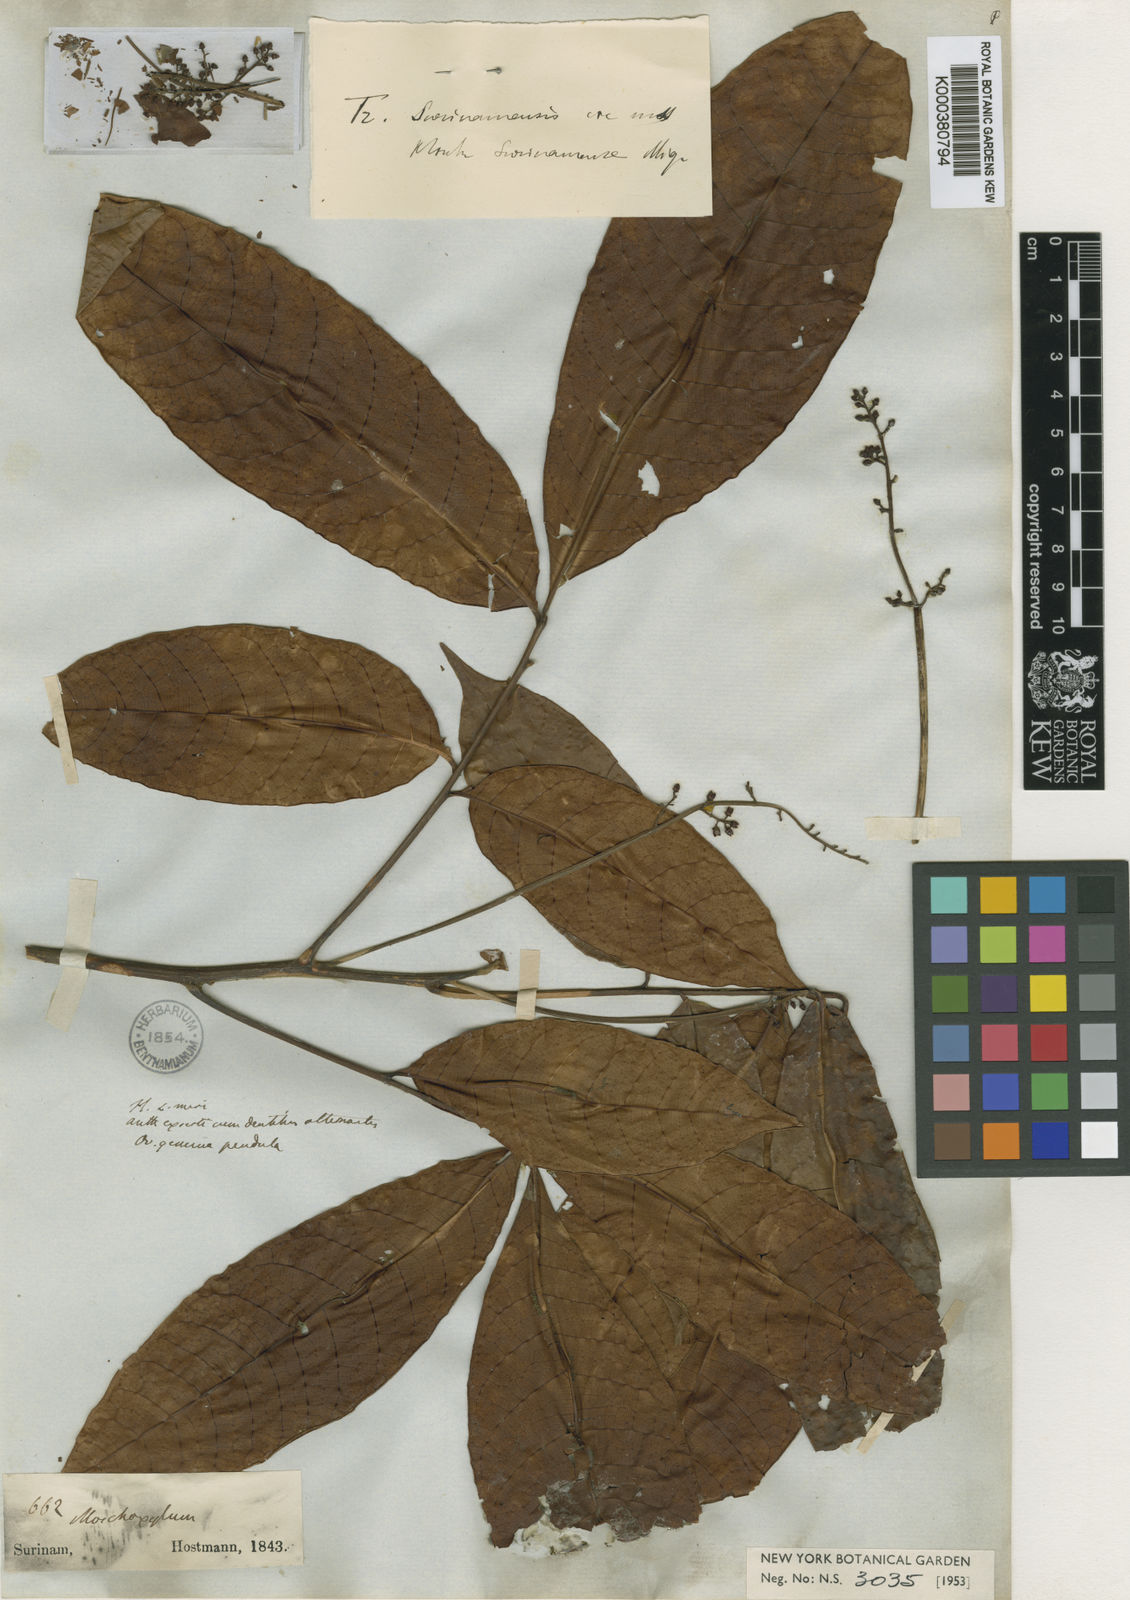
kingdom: Plantae
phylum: Tracheophyta
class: Magnoliopsida
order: Sapindales
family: Meliaceae
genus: Trichilia
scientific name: Trichilia surinamensis
